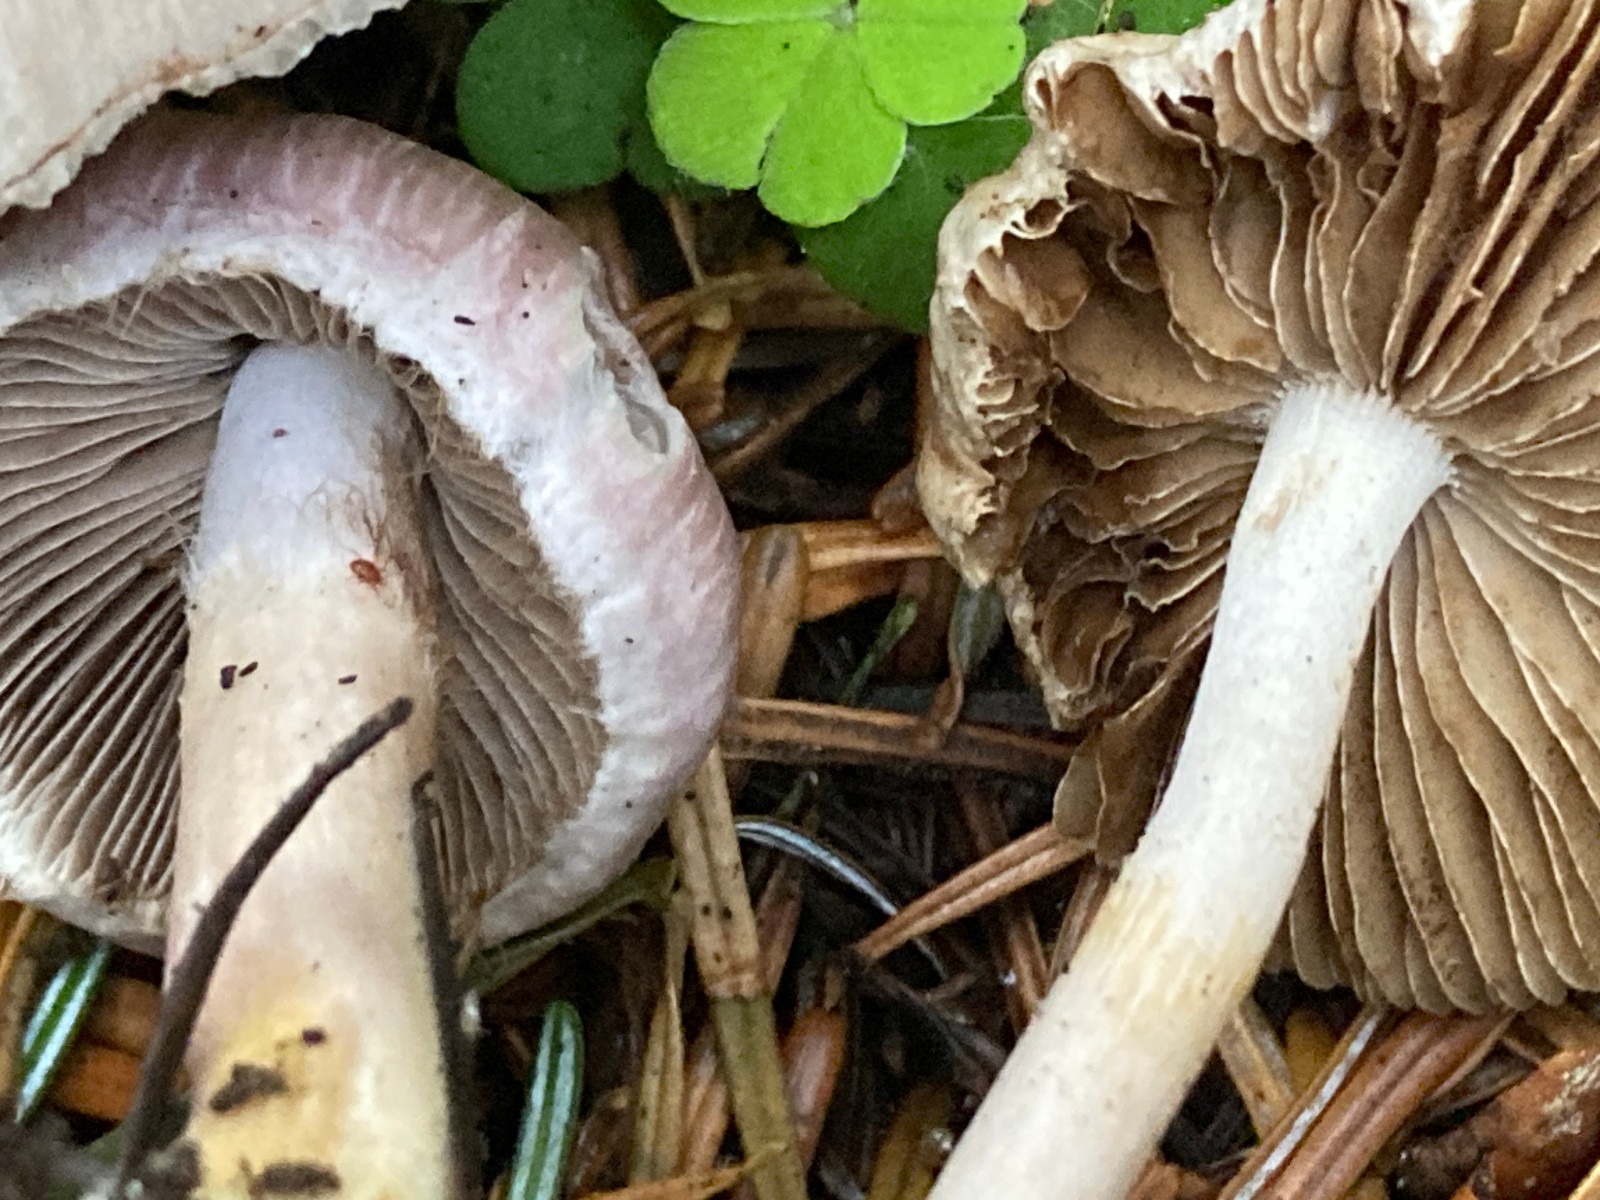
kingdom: Fungi
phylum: Basidiomycota
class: Agaricomycetes
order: Agaricales
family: Inocybaceae
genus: Inocybe
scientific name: Inocybe lilacinomaculata
